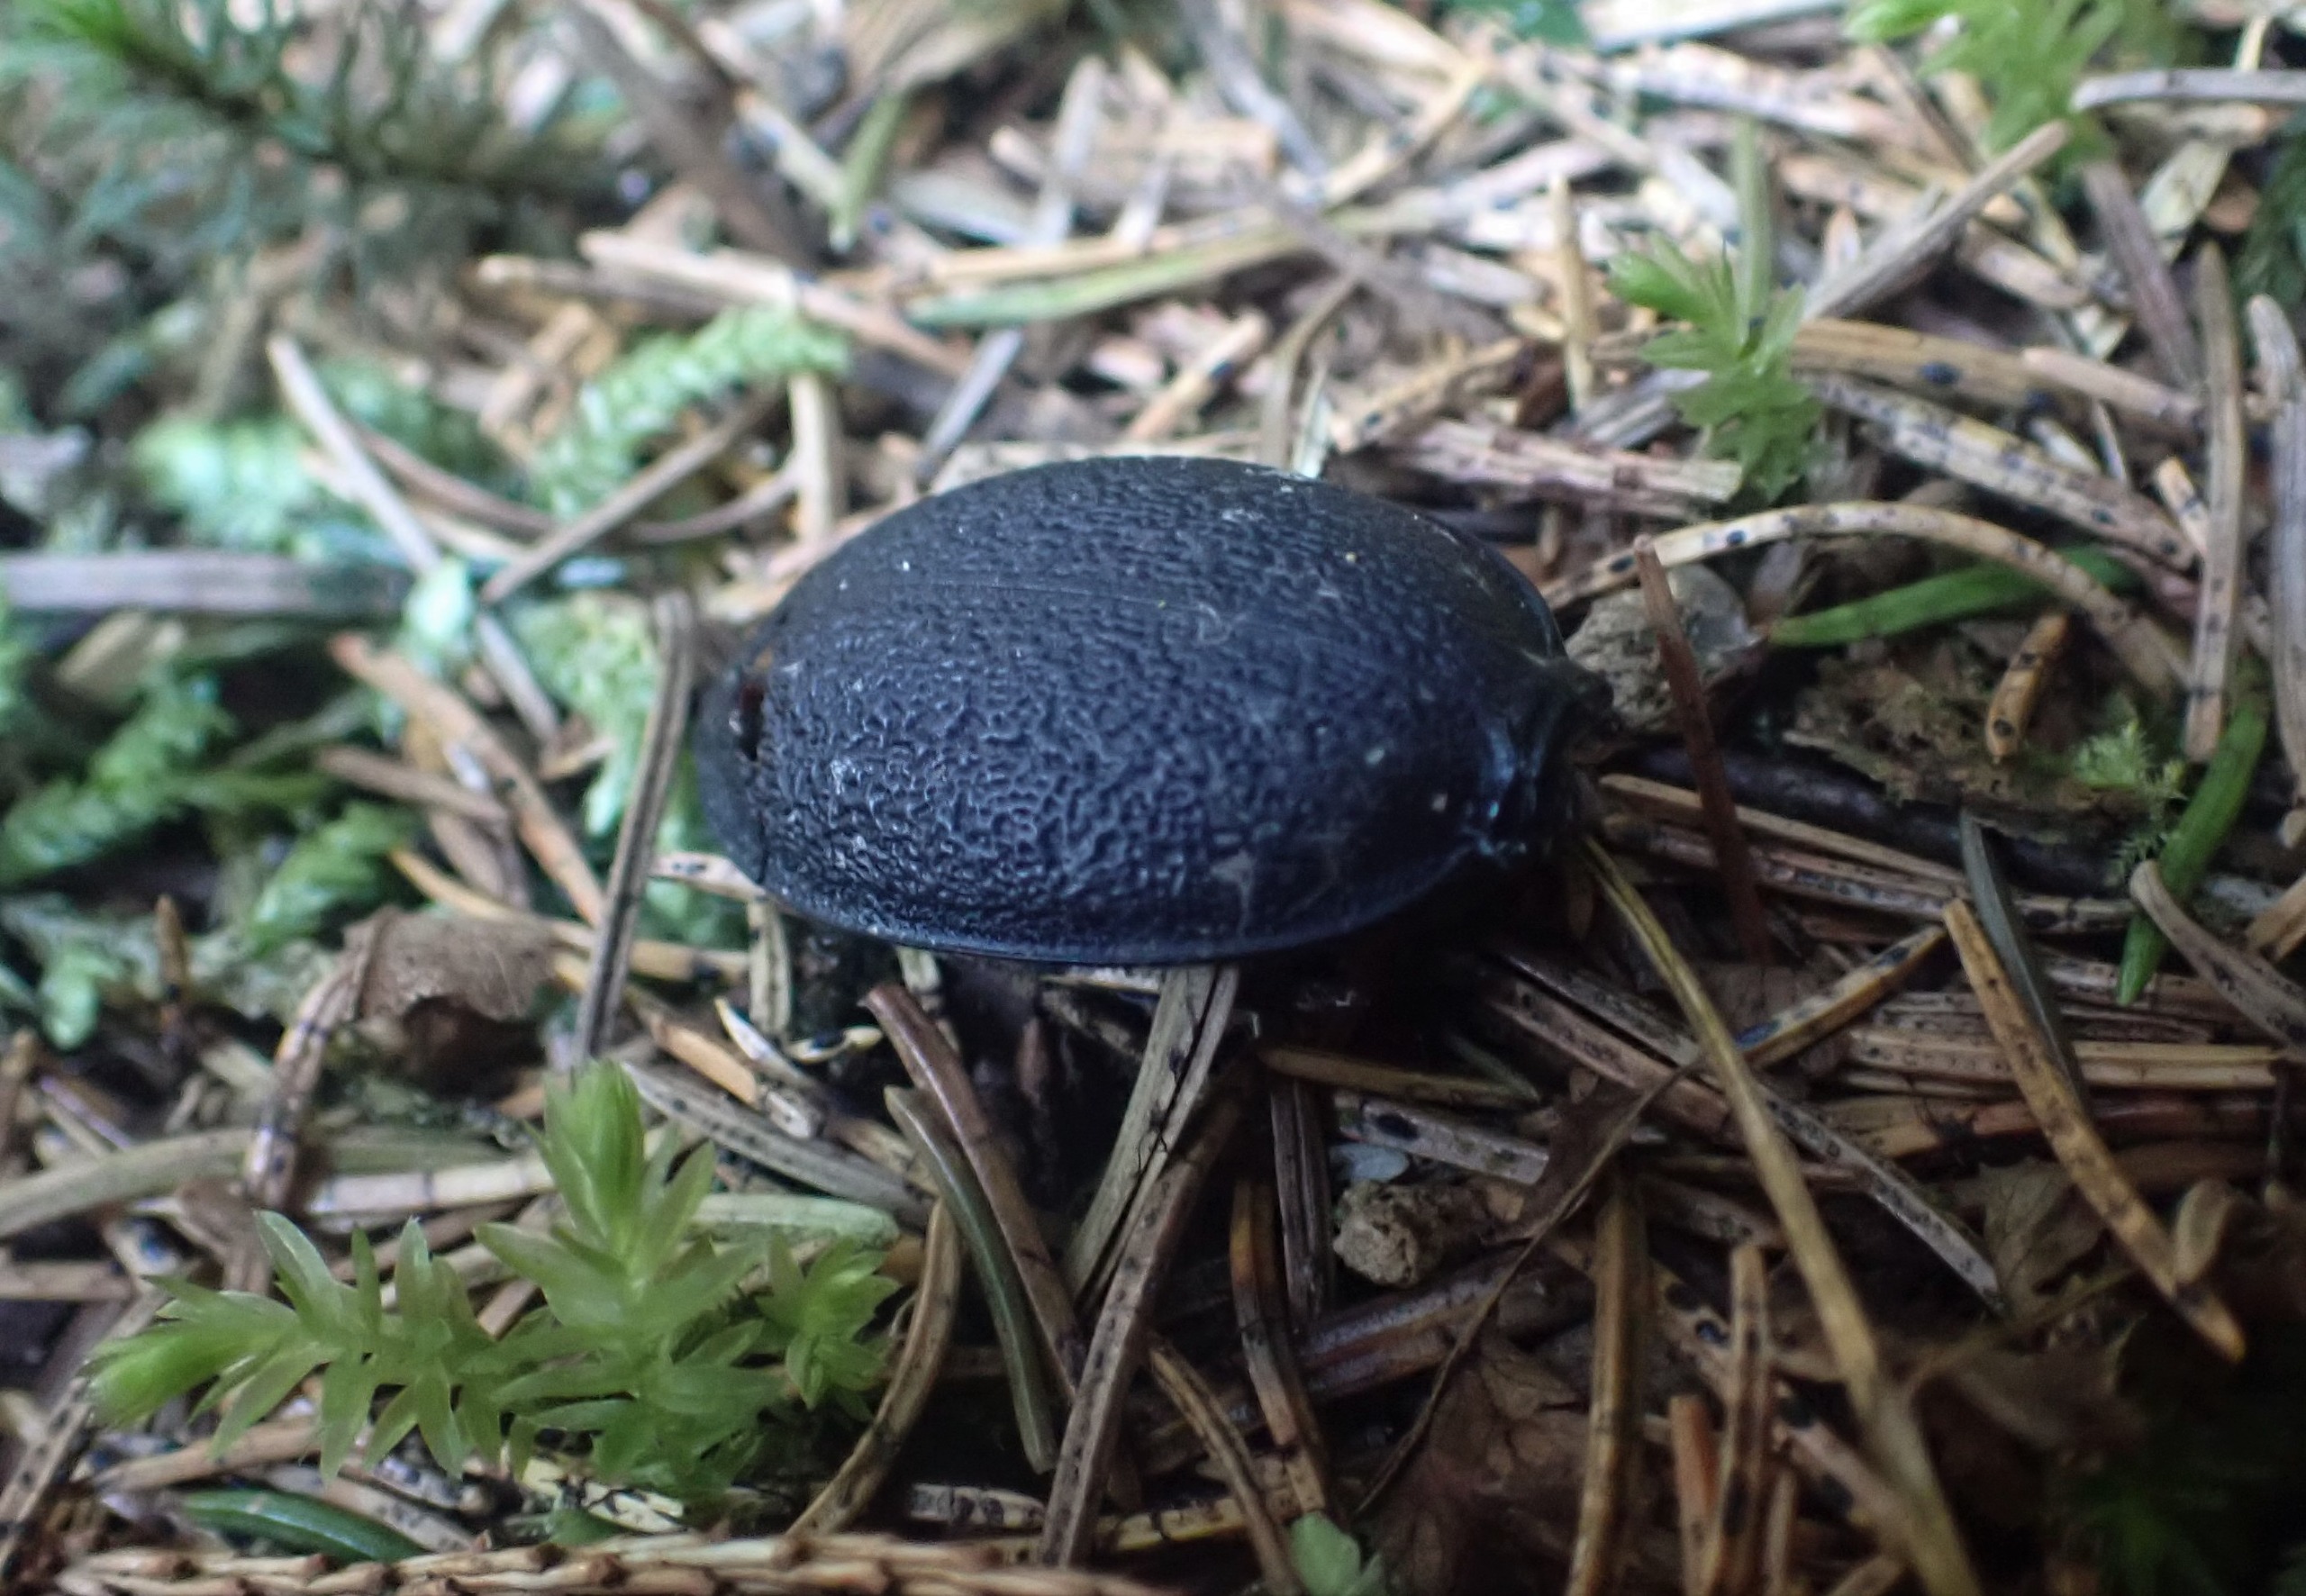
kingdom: Animalia
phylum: Arthropoda
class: Insecta
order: Coleoptera
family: Carabidae
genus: Carabus
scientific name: Carabus coriaceus
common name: Læderløber
